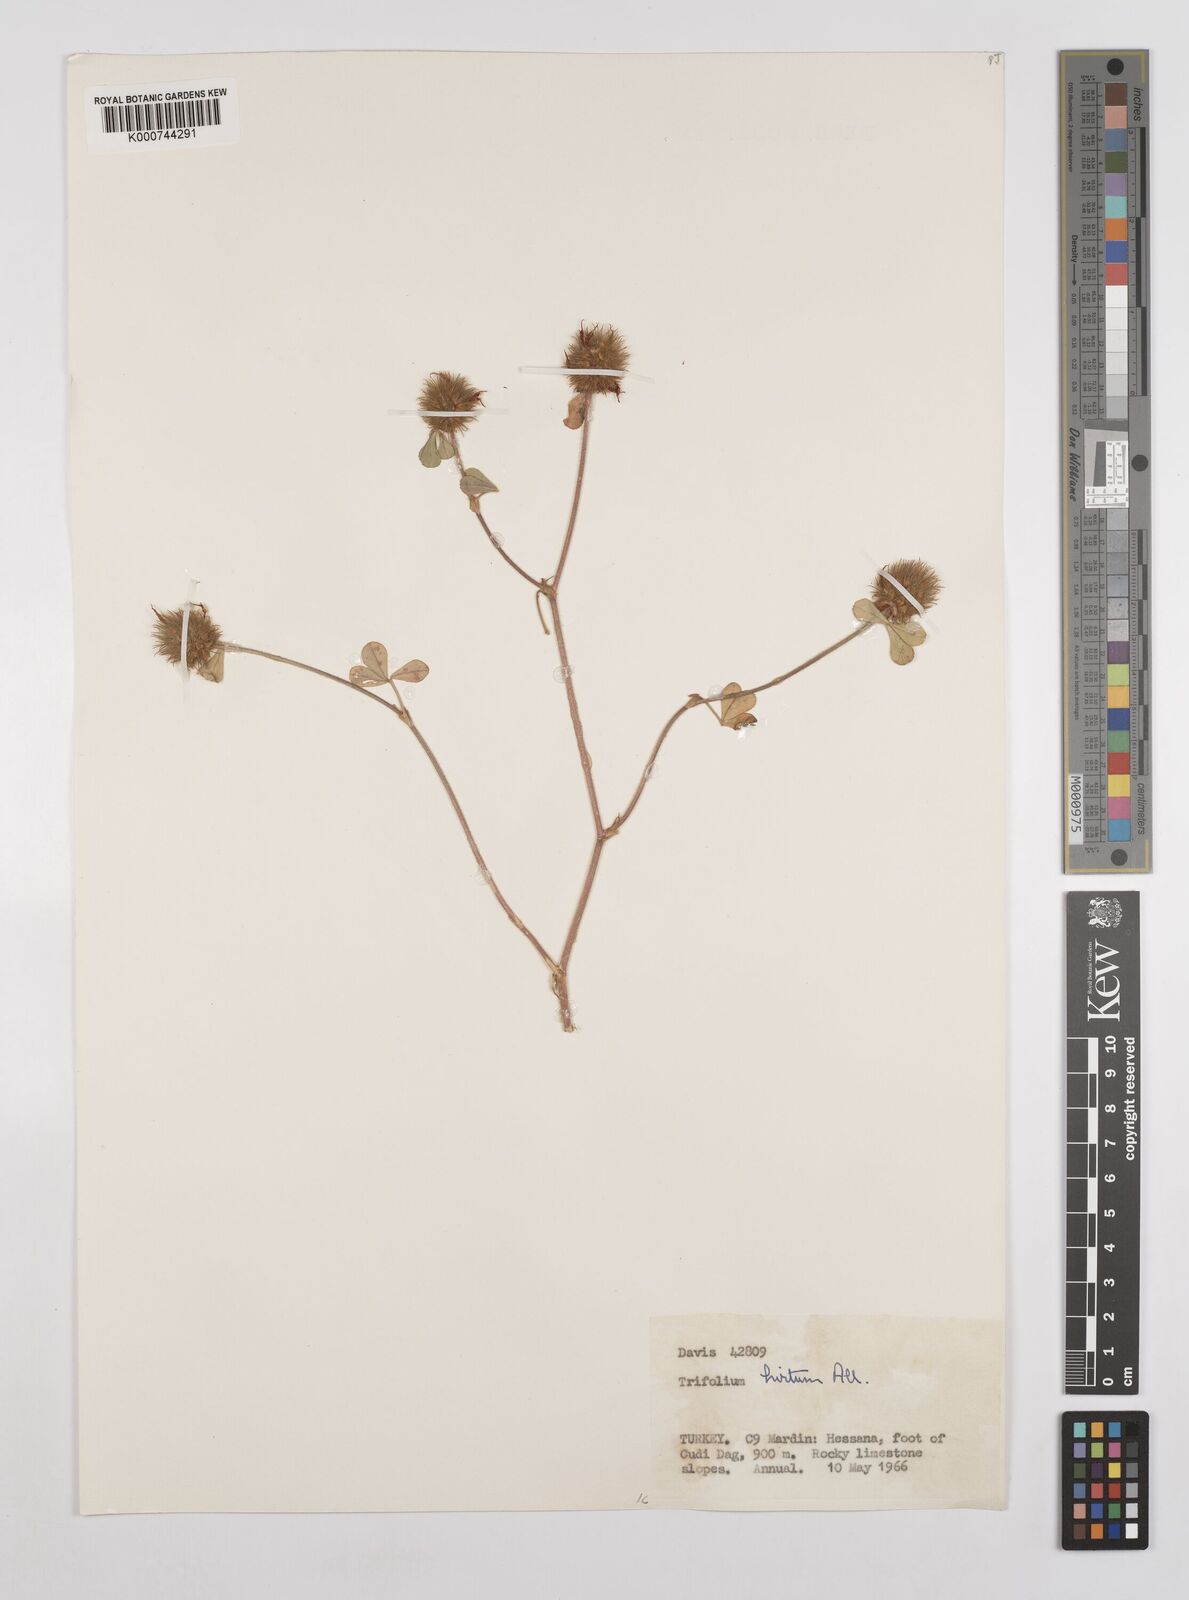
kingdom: Plantae
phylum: Tracheophyta
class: Magnoliopsida
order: Fabales
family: Fabaceae
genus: Trifolium
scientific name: Trifolium hirtum
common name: Rose clover
